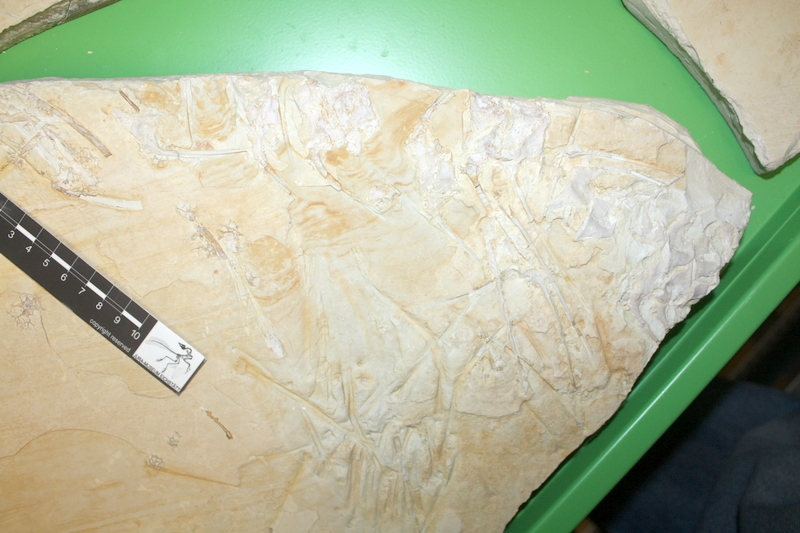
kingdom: Animalia
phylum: Chordata
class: Coelacanthi
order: Coelacanthiformes
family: Coelacanthidae
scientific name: Coelacanthidae
